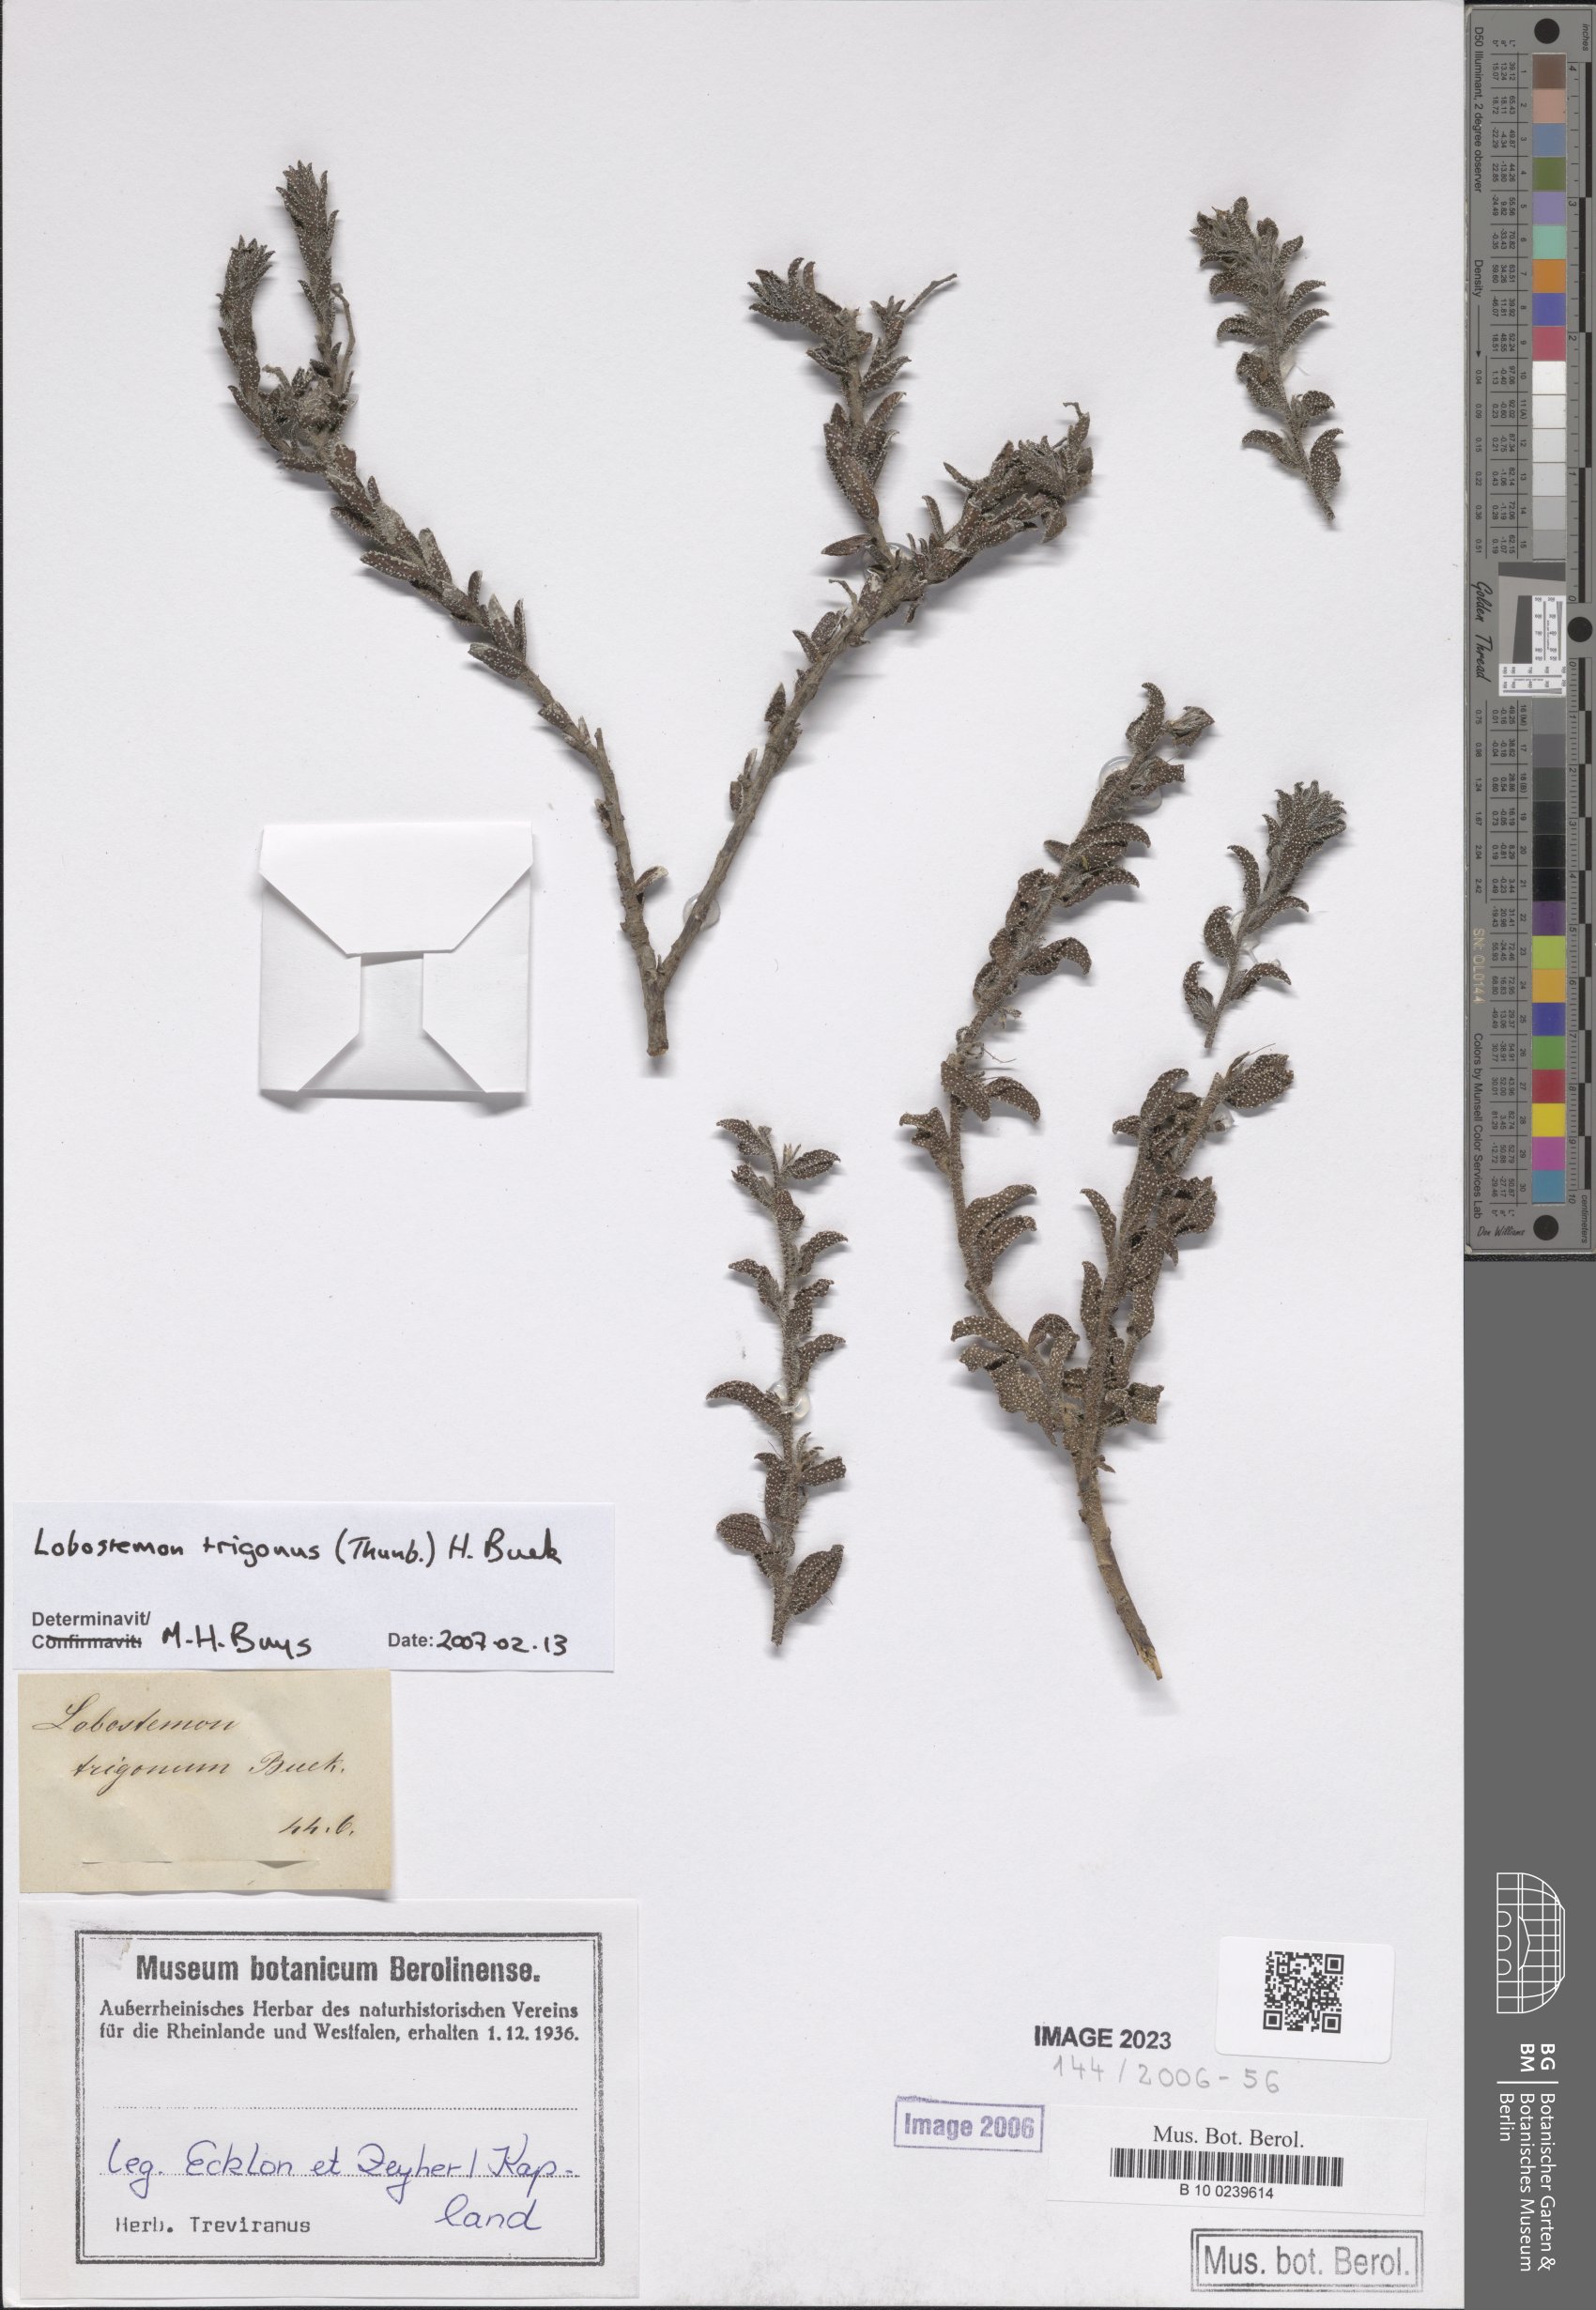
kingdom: Plantae
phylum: Tracheophyta
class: Magnoliopsida
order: Boraginales
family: Boraginaceae
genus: Lobostemon
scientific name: Lobostemon trigonus
